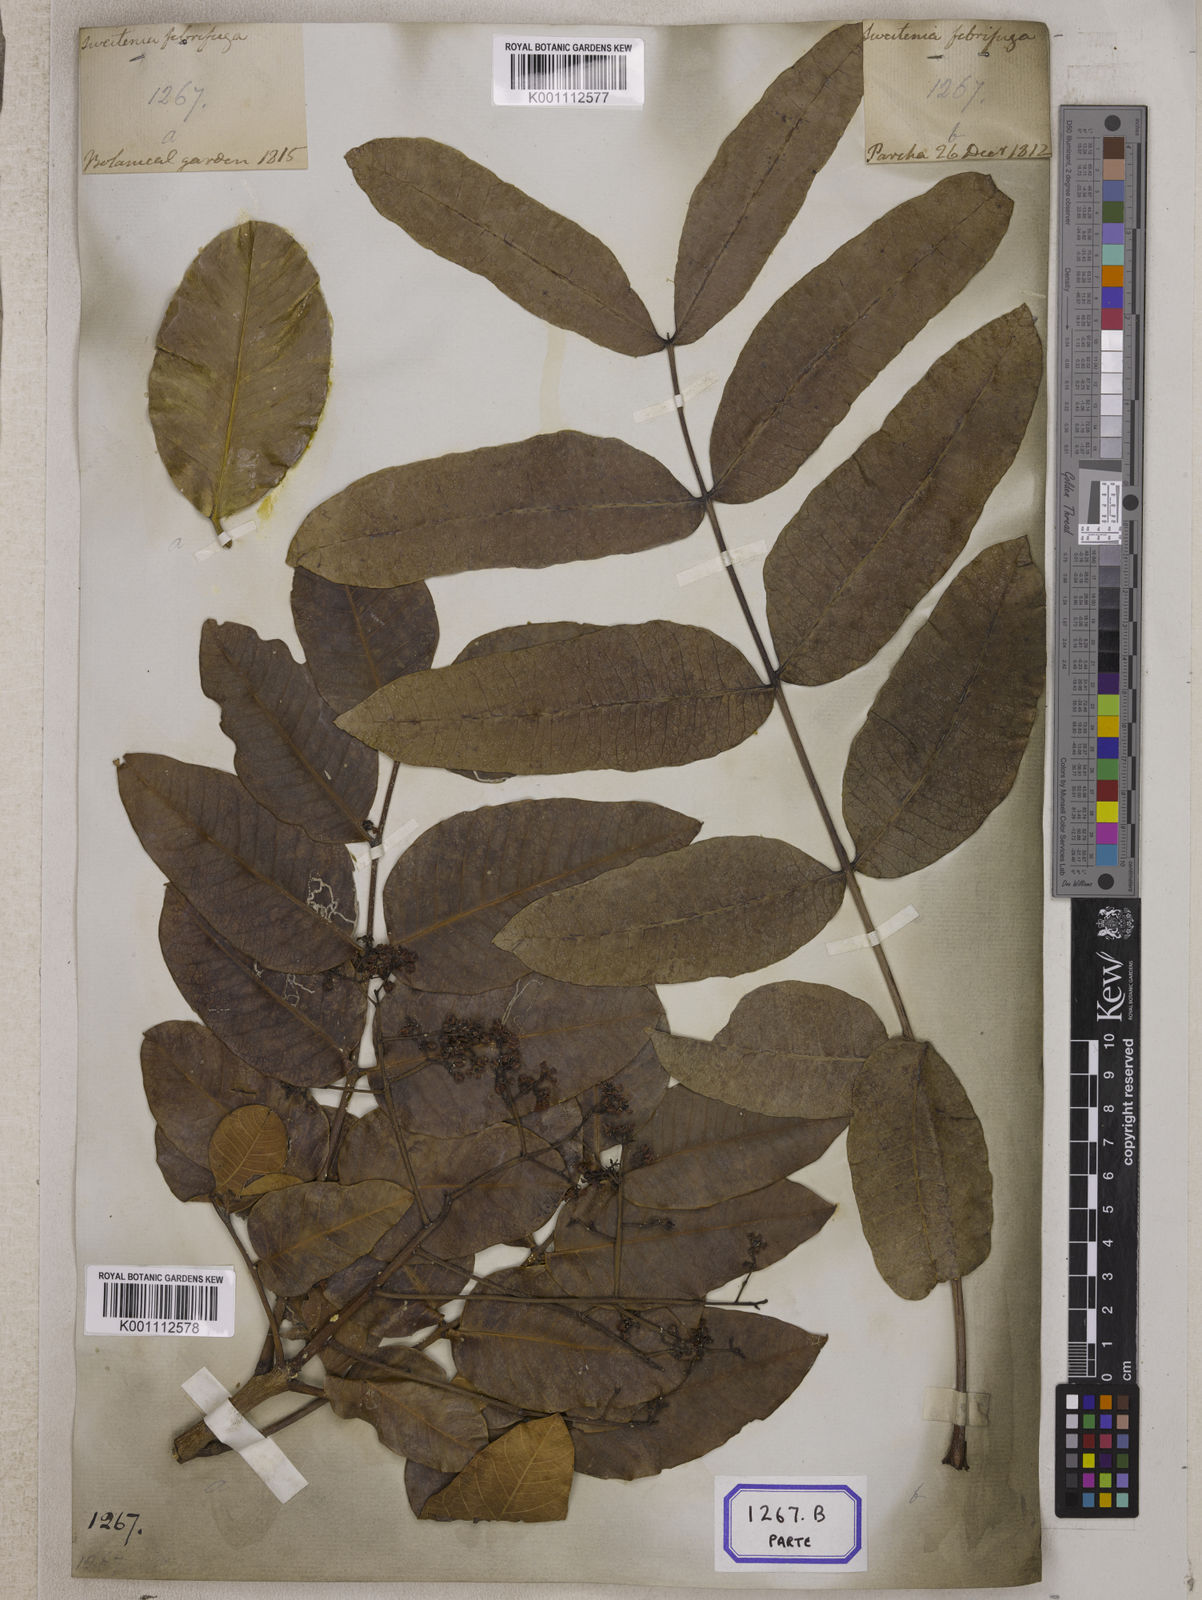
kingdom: Plantae
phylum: Tracheophyta
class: Magnoliopsida
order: Sapindales
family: Meliaceae
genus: Soymida
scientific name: Soymida febrifuga
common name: Indian-redwood
